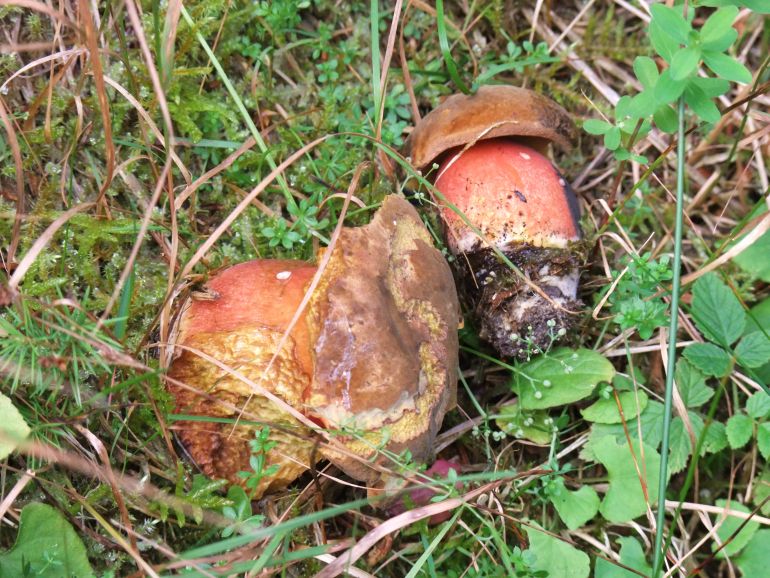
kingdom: Fungi
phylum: Basidiomycota
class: Agaricomycetes
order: Boletales
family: Boletaceae
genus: Neoboletus
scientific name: Neoboletus erythropus
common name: punktstokket indigorørhat
